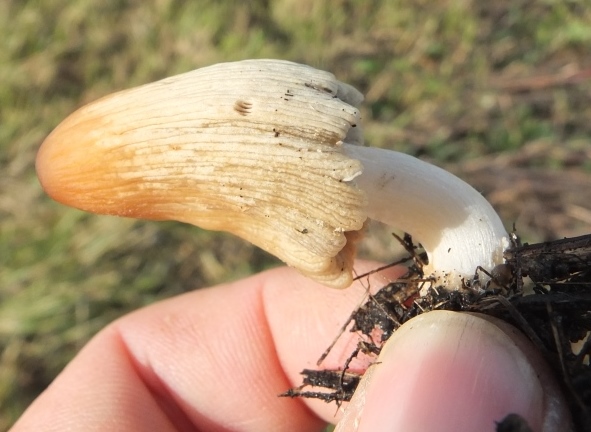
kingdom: Fungi
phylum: Basidiomycota
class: Agaricomycetes
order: Agaricales
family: Psathyrellaceae
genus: Coprinellus
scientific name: Coprinellus flocculosus
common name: fnugget blækhat
